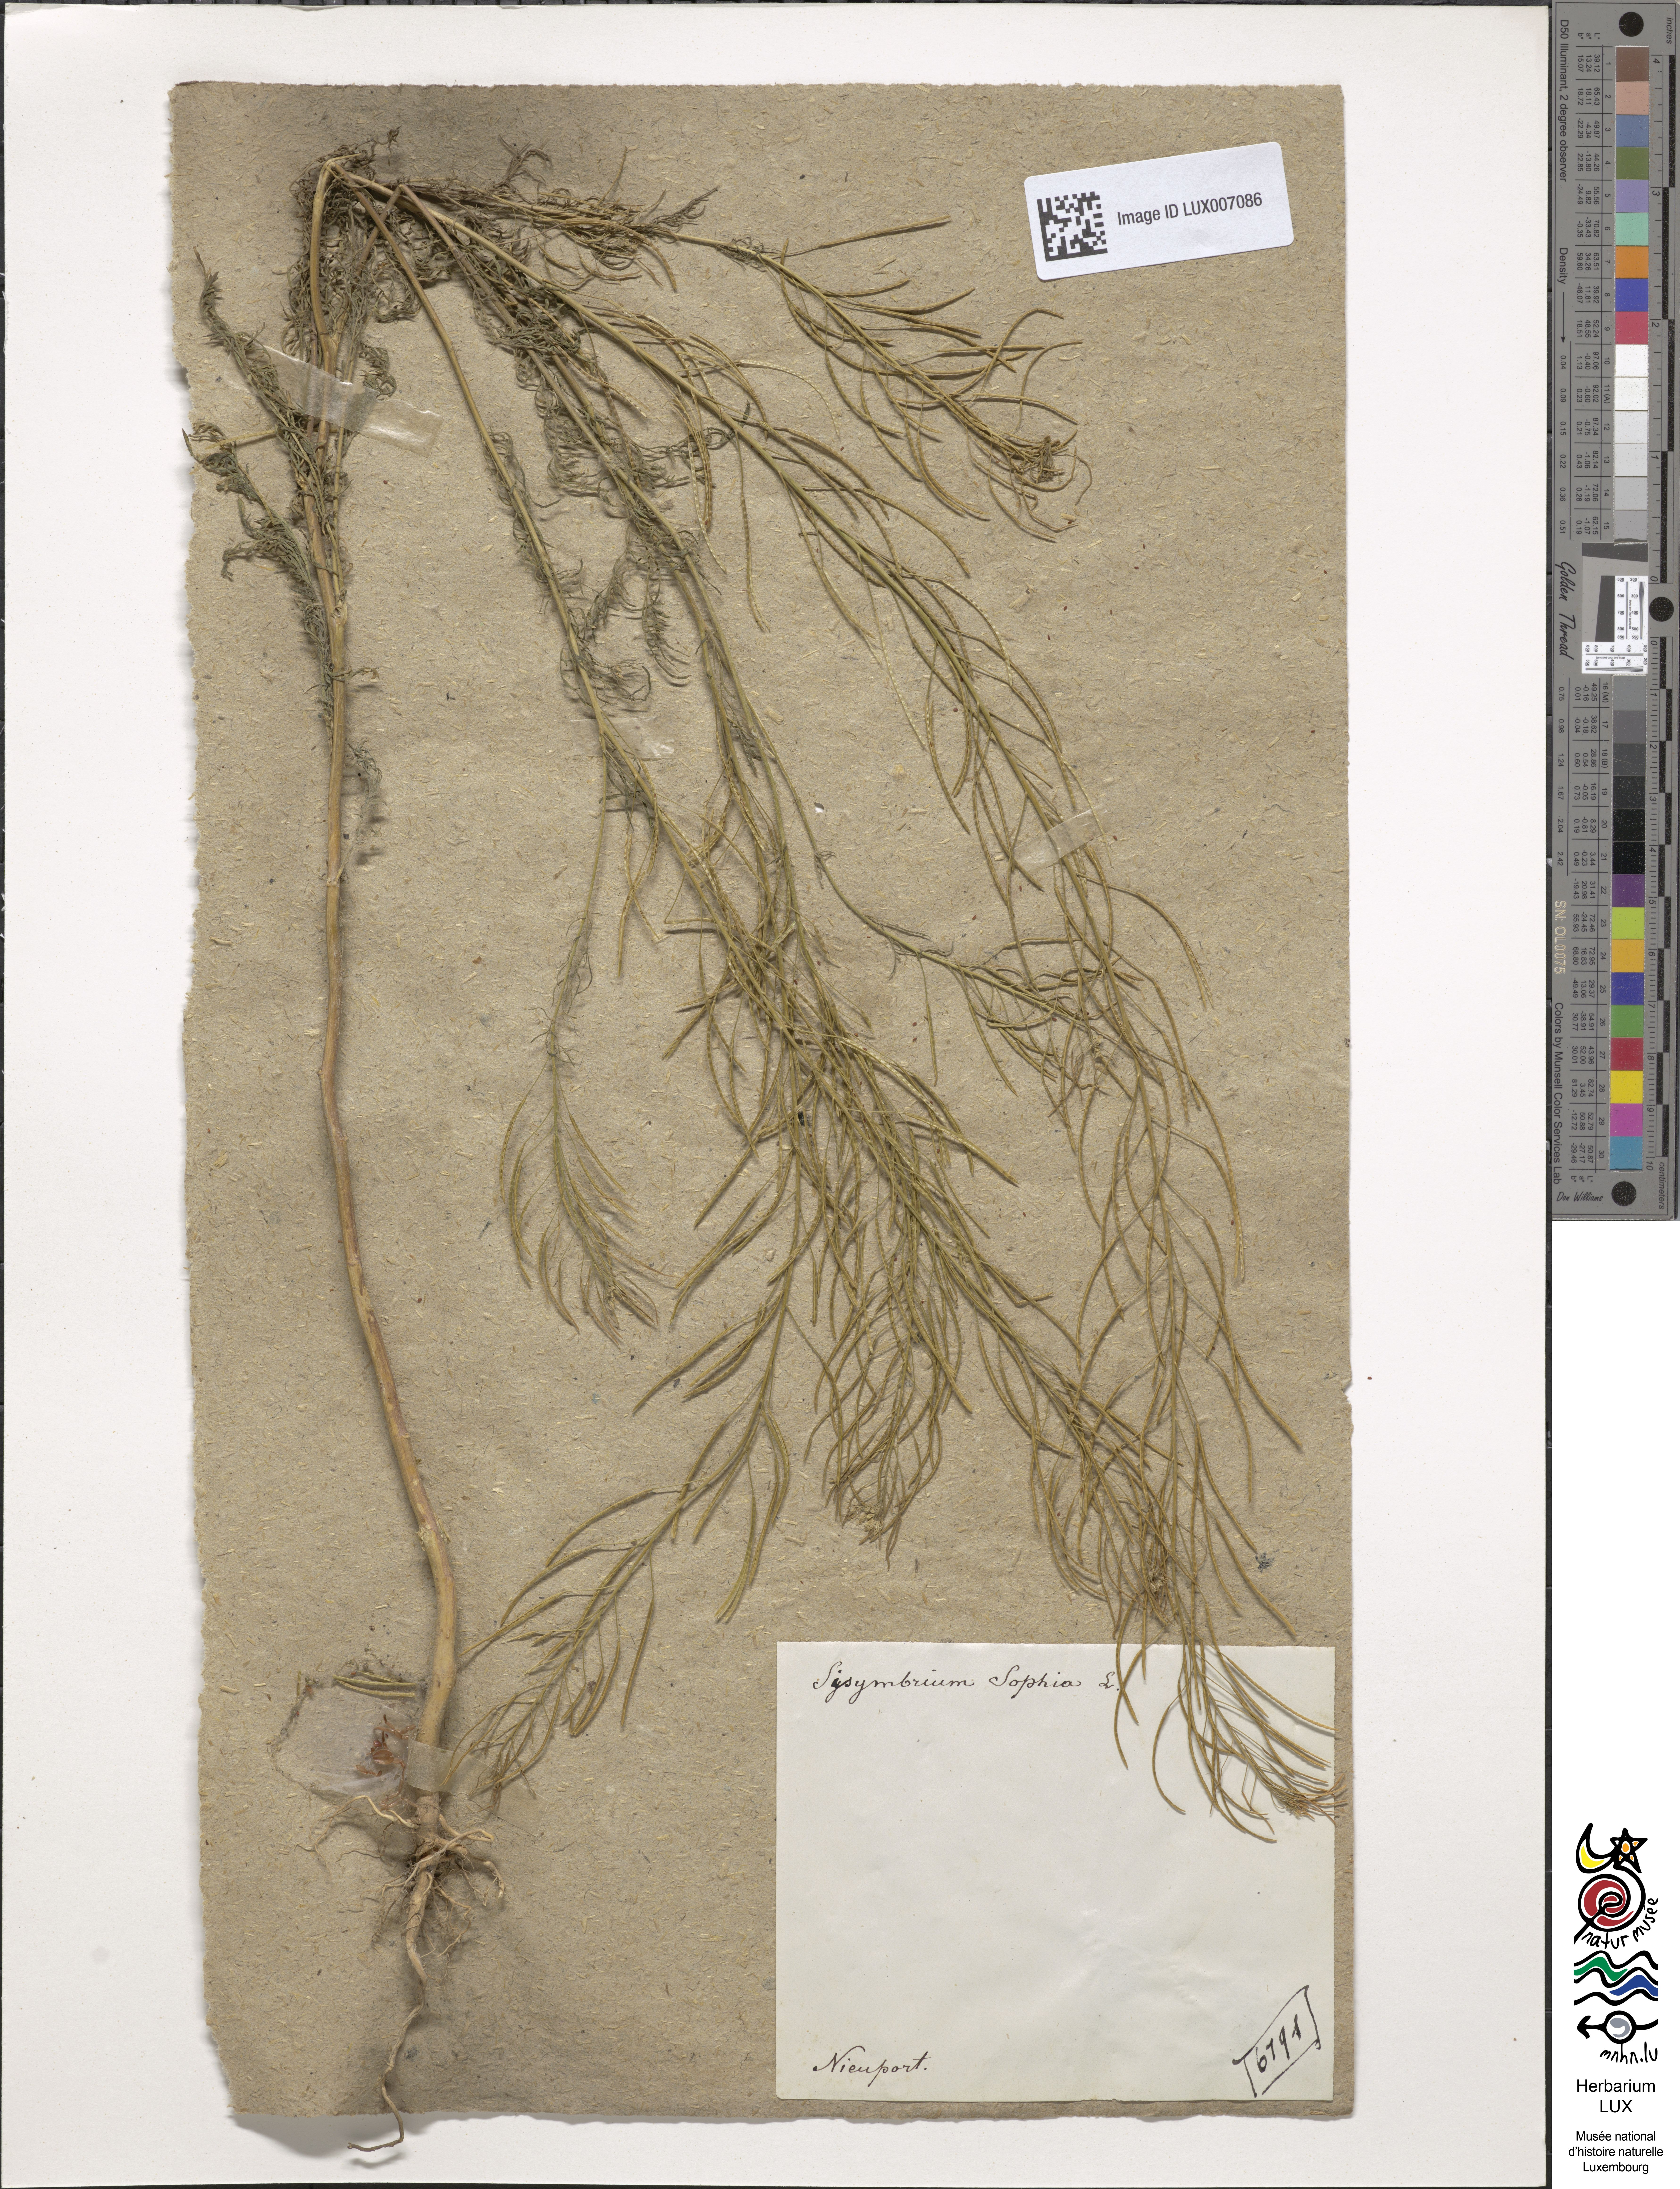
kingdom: Plantae
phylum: Tracheophyta
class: Magnoliopsida
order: Brassicales
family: Brassicaceae
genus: Descurainia
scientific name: Descurainia sophia
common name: Flixweed
